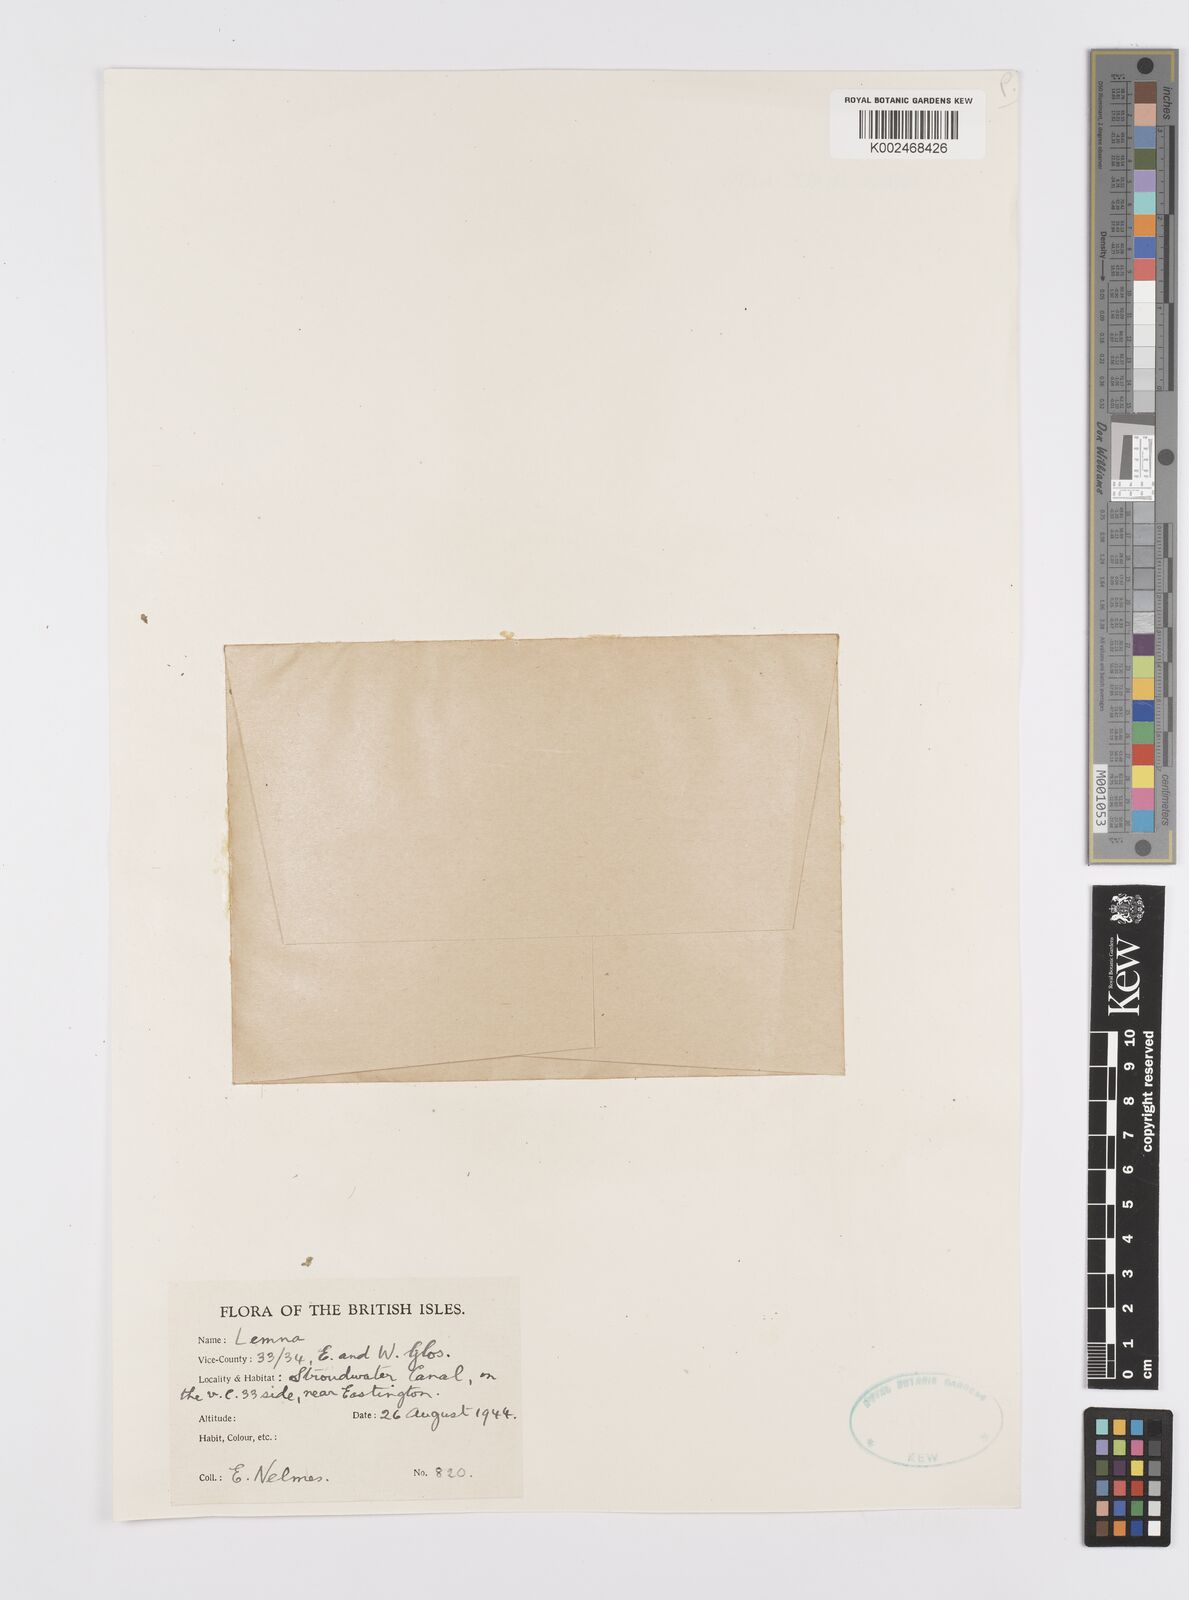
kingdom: Plantae
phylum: Tracheophyta
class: Liliopsida
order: Alismatales
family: Araceae
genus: Wolffia
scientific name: Wolffia
